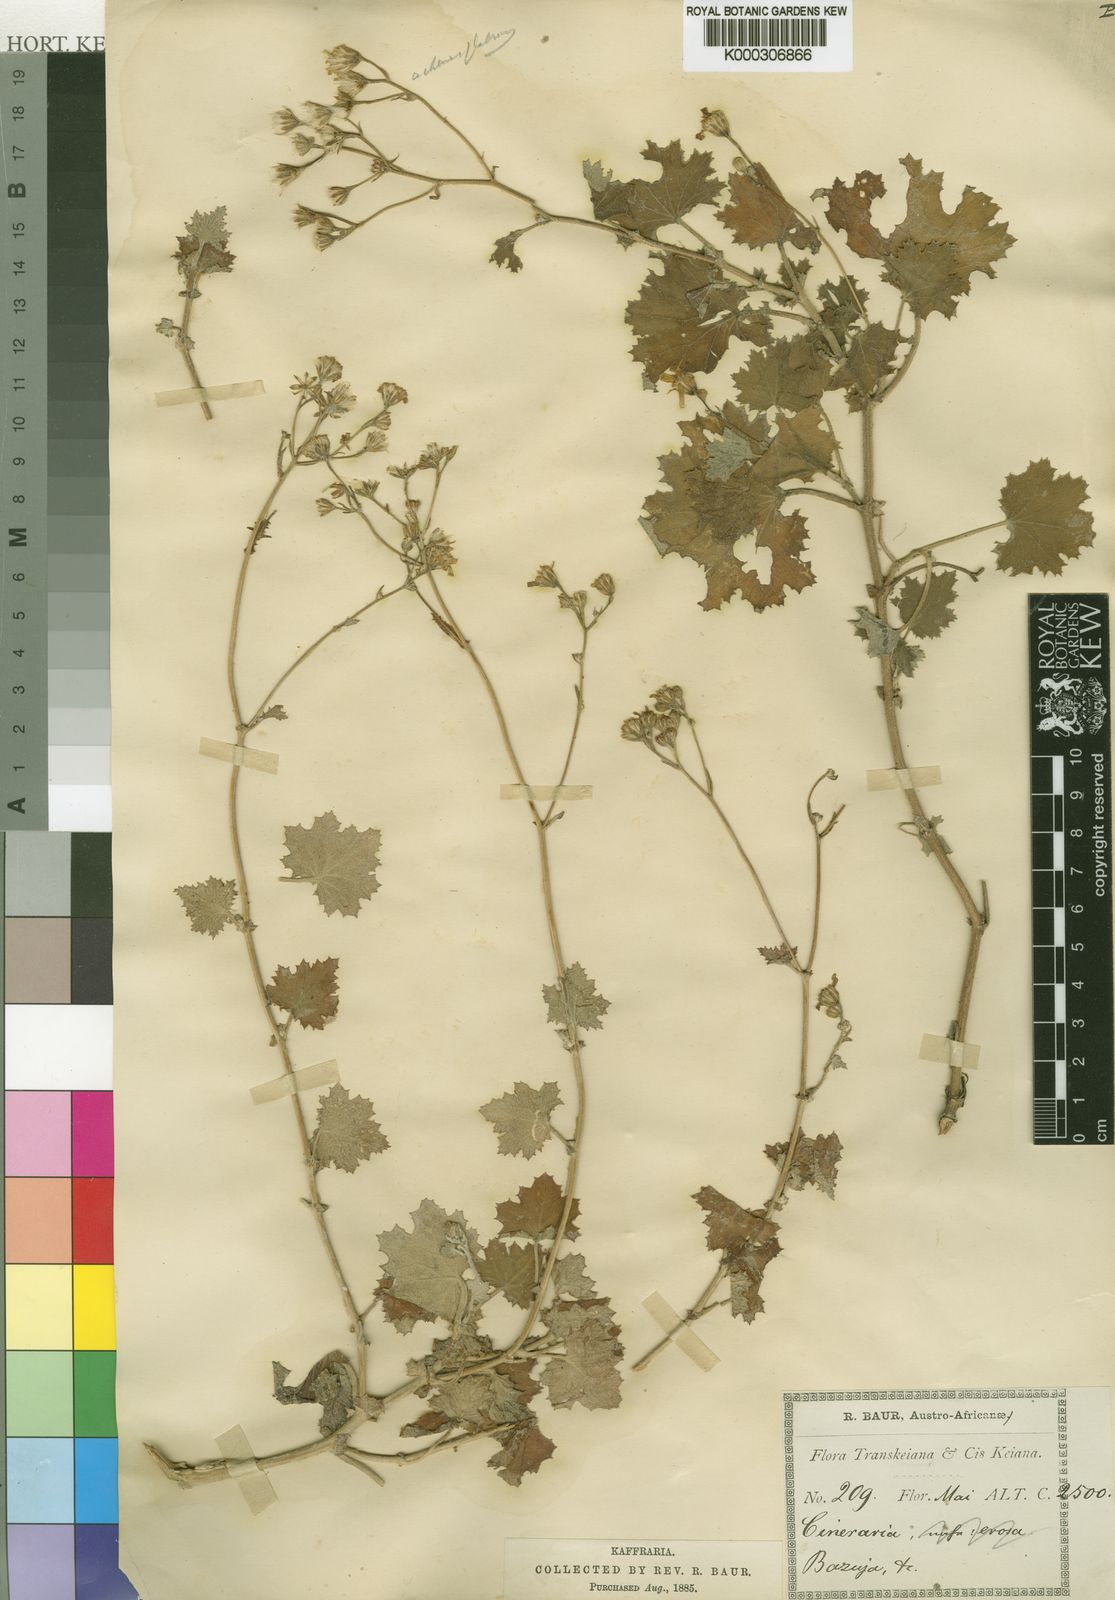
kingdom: Plantae
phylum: Tracheophyta
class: Magnoliopsida
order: Asterales
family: Asteraceae
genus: Cineraria
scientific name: Cineraria
